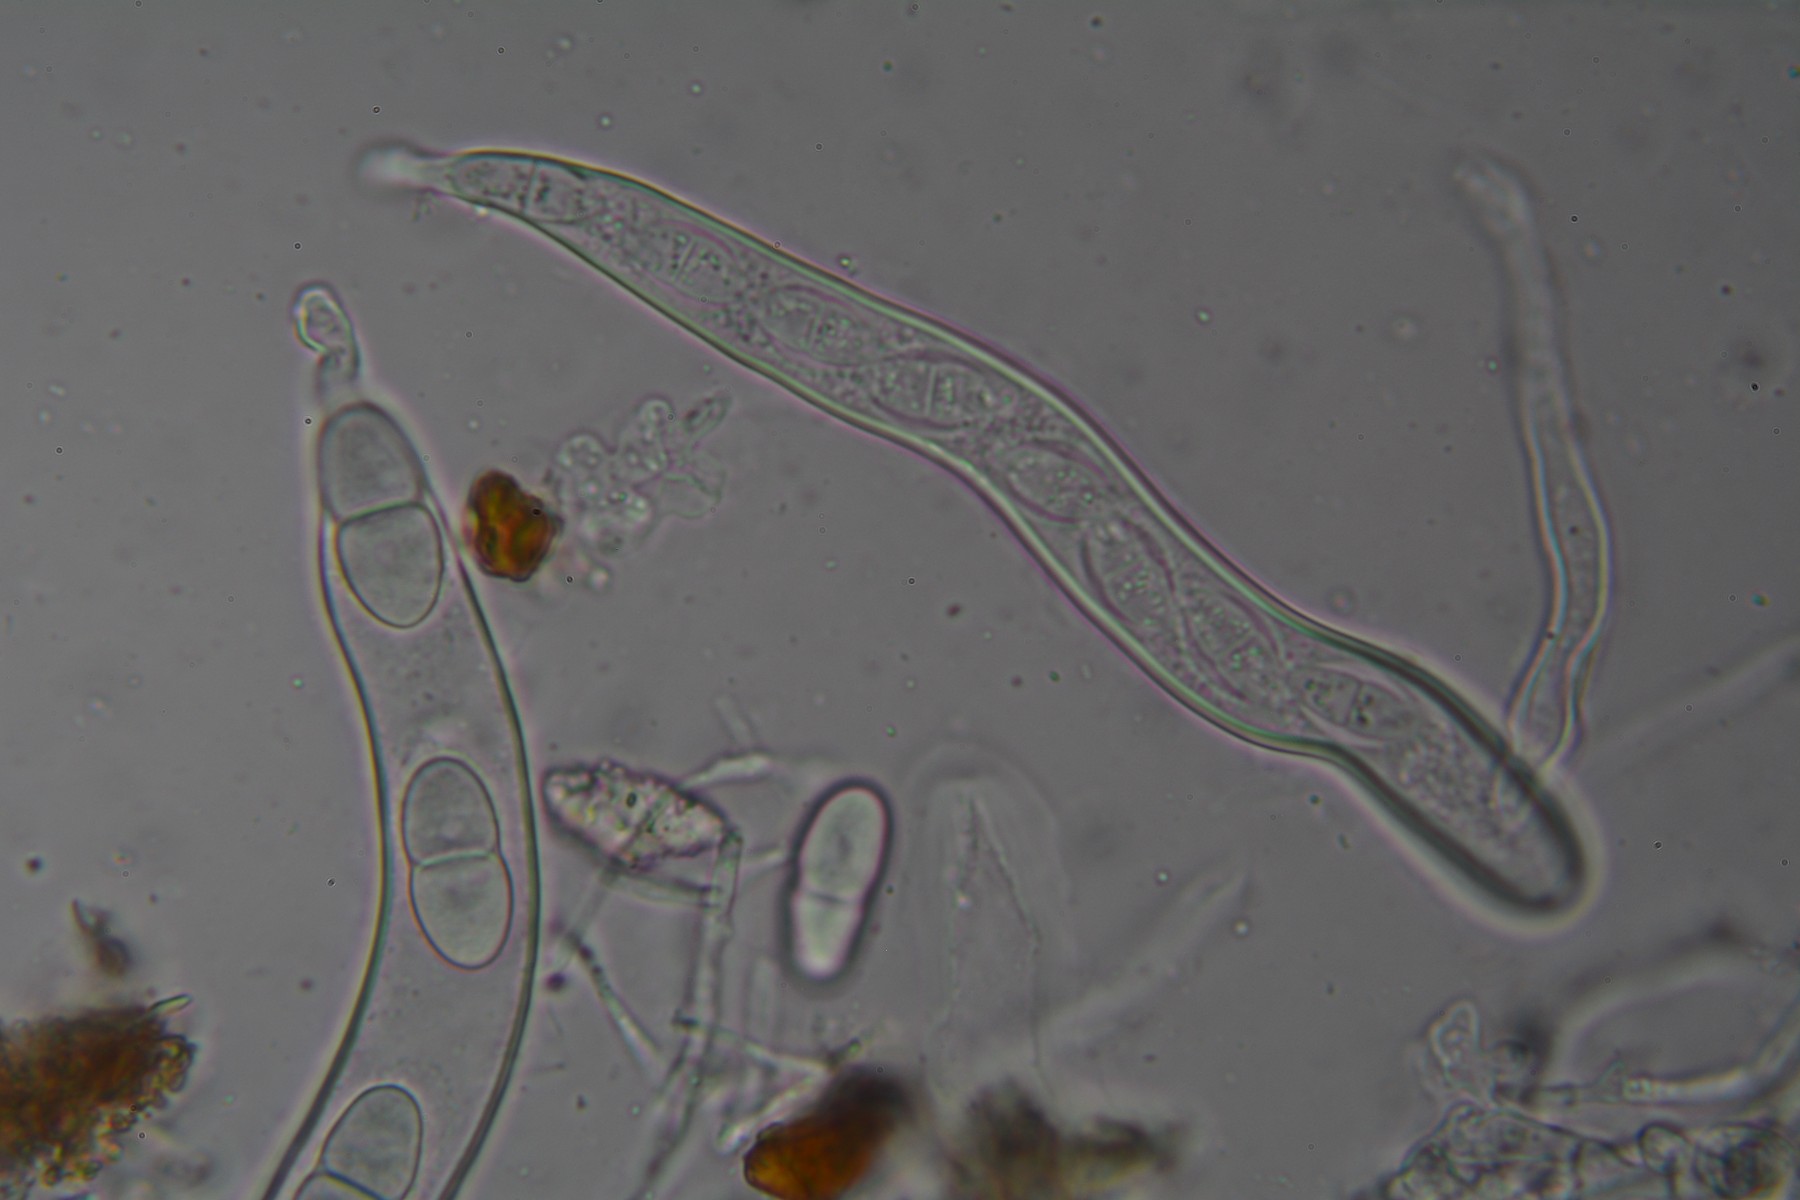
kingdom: Fungi
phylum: Ascomycota
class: Sordariomycetes
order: Diaporthales
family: Gnomoniaceae
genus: Plagiostoma
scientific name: Plagiostoma apiculatum
